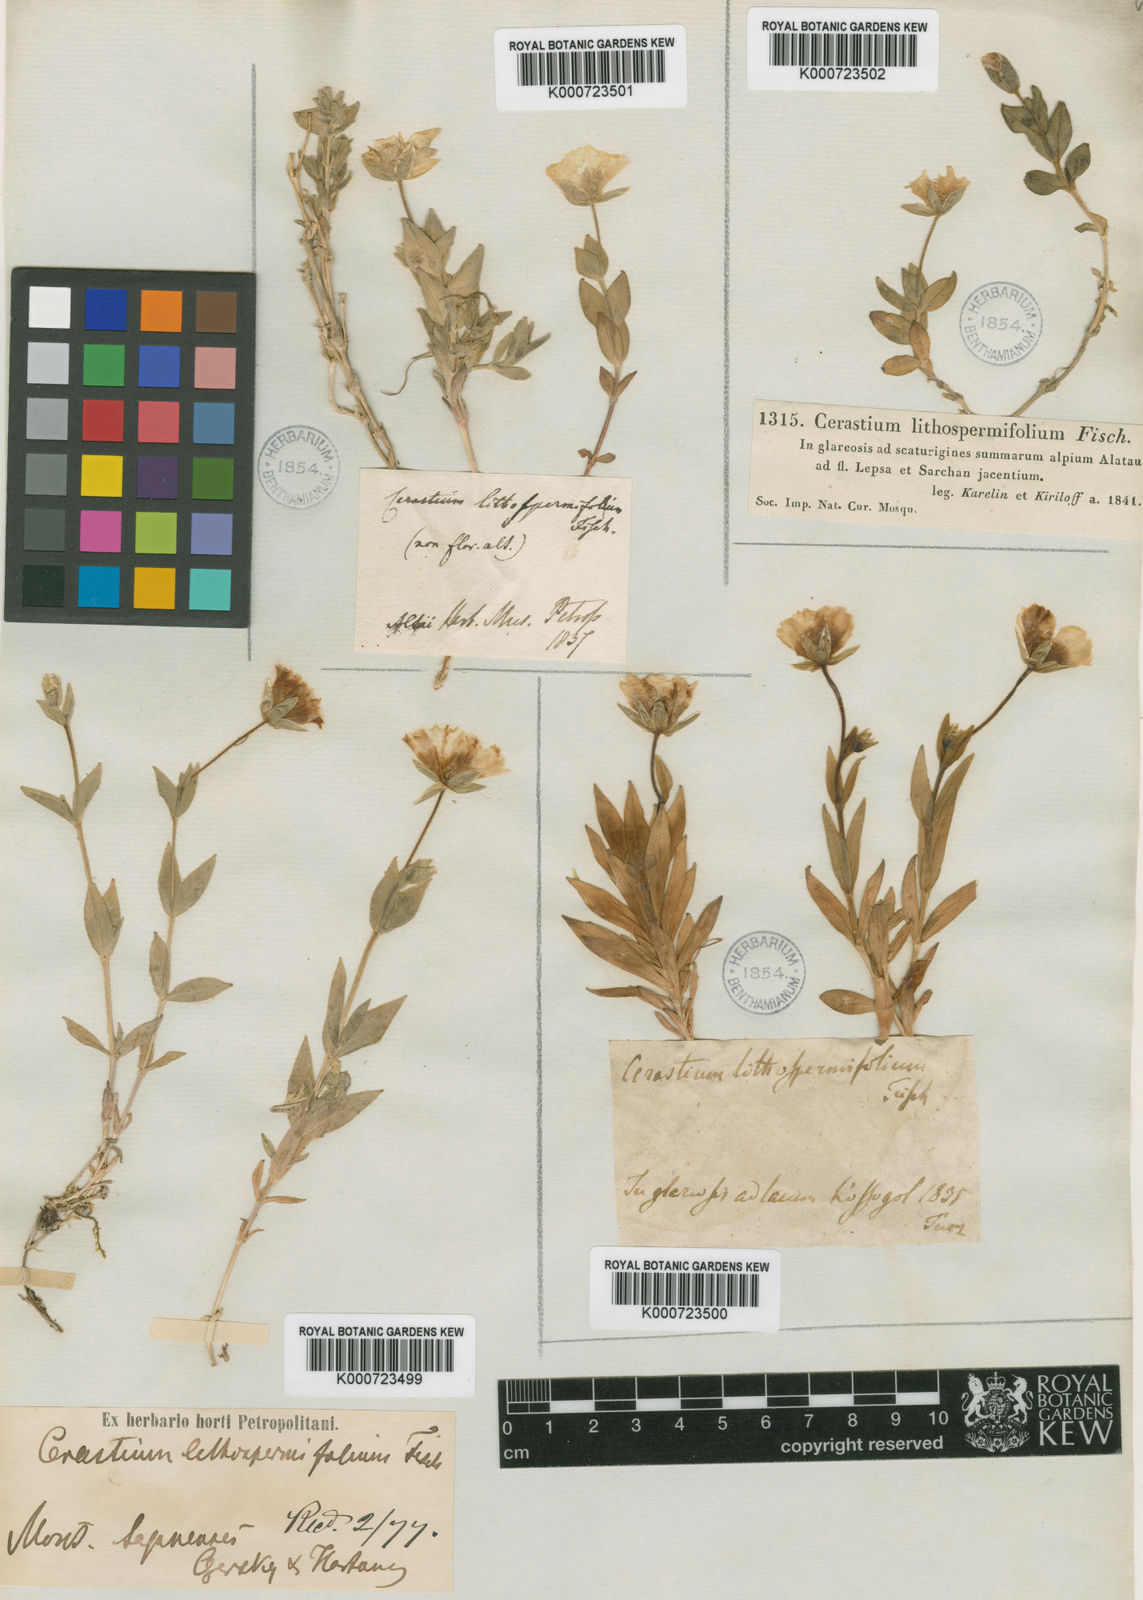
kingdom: Plantae
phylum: Tracheophyta
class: Magnoliopsida
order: Caryophyllales
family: Caryophyllaceae
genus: Cerastium
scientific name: Cerastium lithospermifolium
